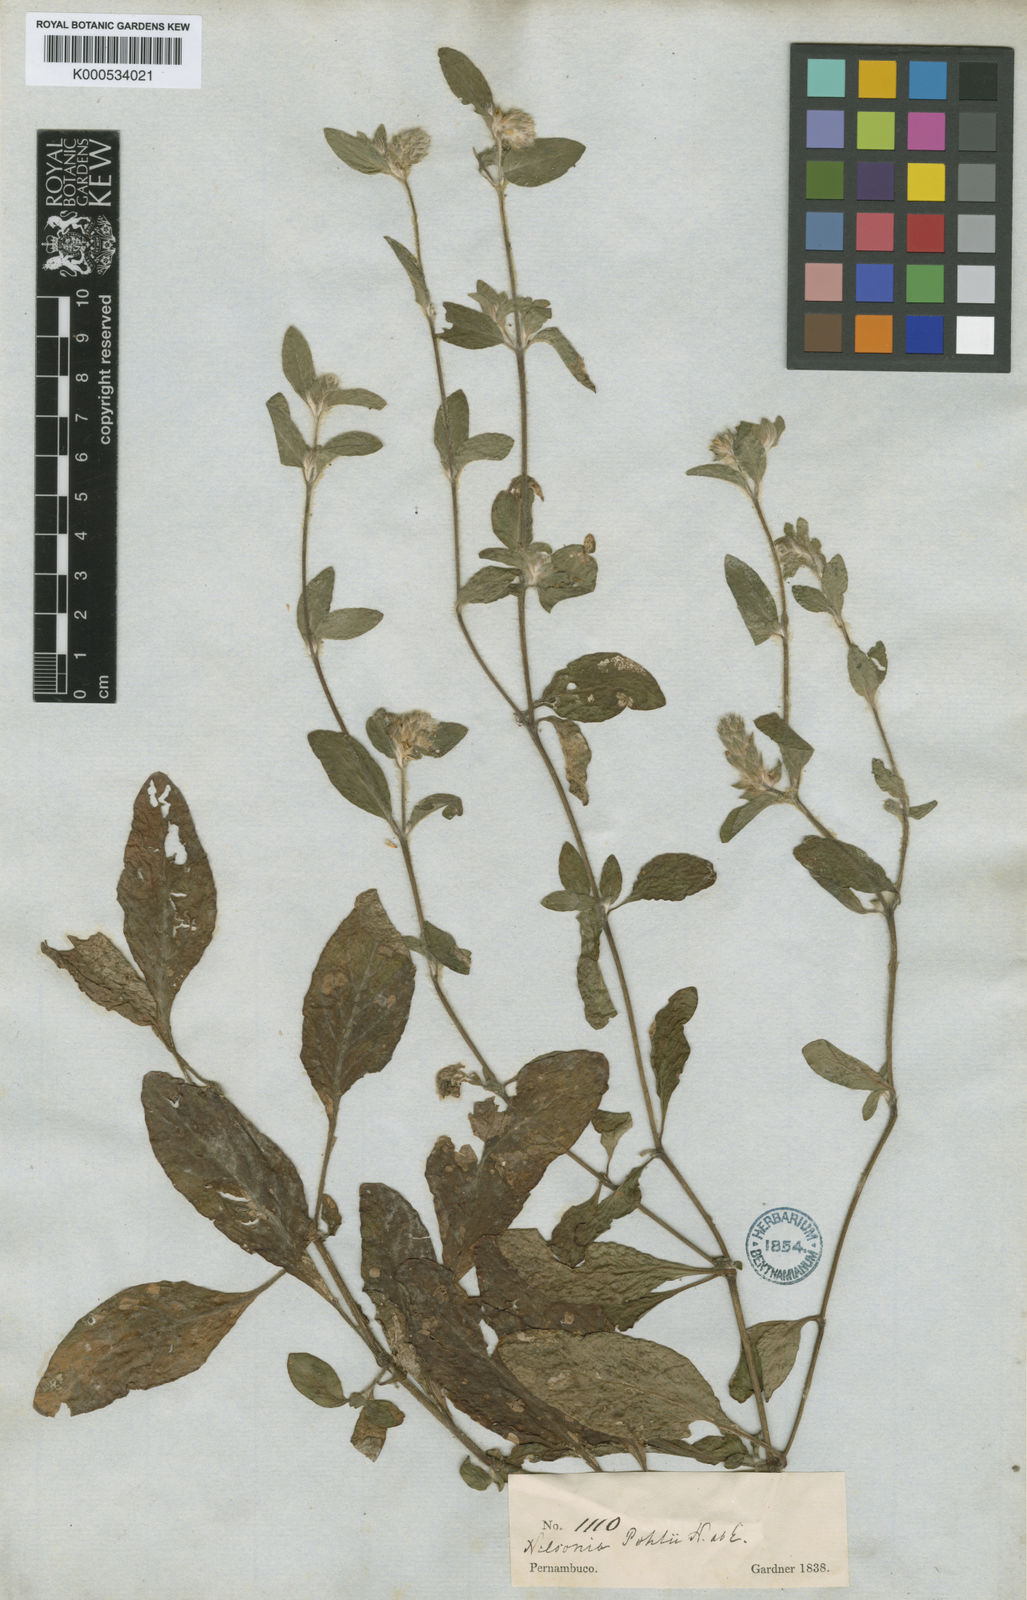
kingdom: Plantae
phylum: Tracheophyta
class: Magnoliopsida
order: Lamiales
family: Acanthaceae
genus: Nelsonia
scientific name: Nelsonia canescens
